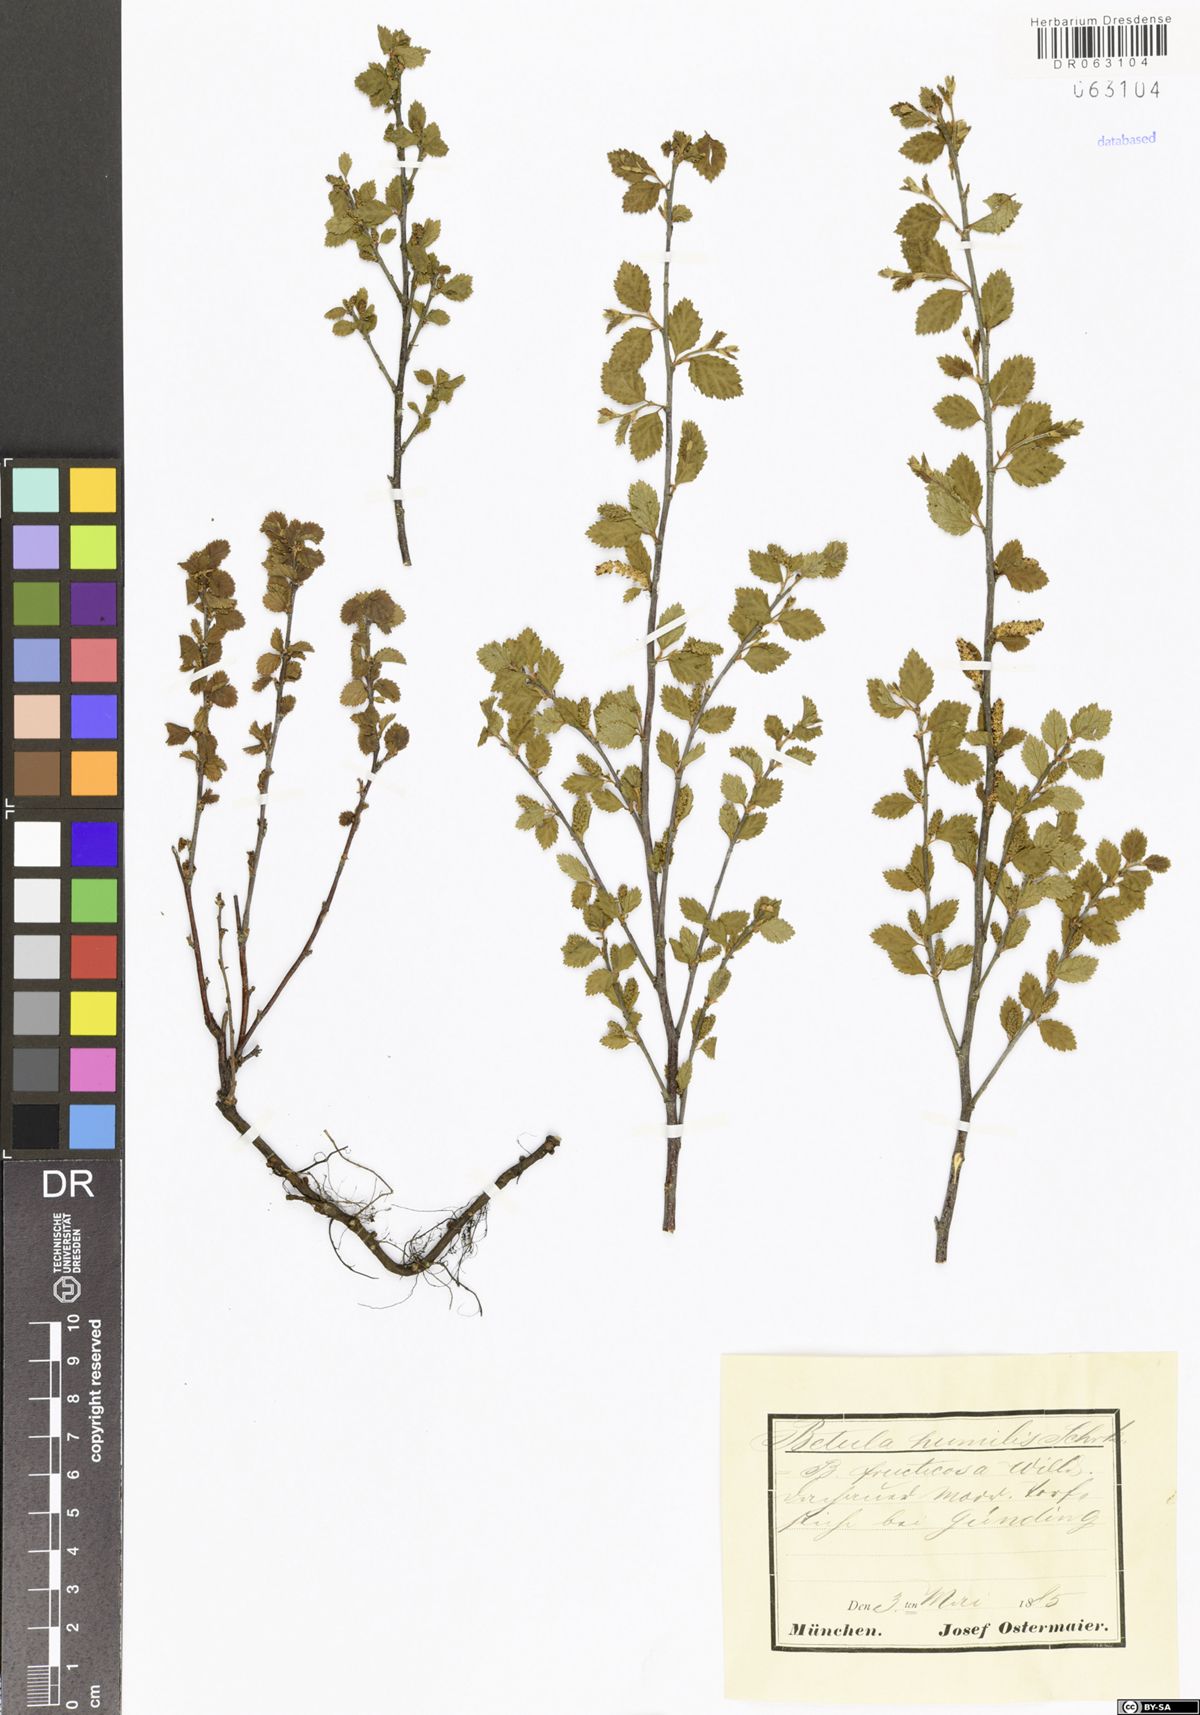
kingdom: Plantae
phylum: Tracheophyta
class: Magnoliopsida
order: Fagales
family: Betulaceae
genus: Betula
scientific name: Betula humilis
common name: Shrubby birch
